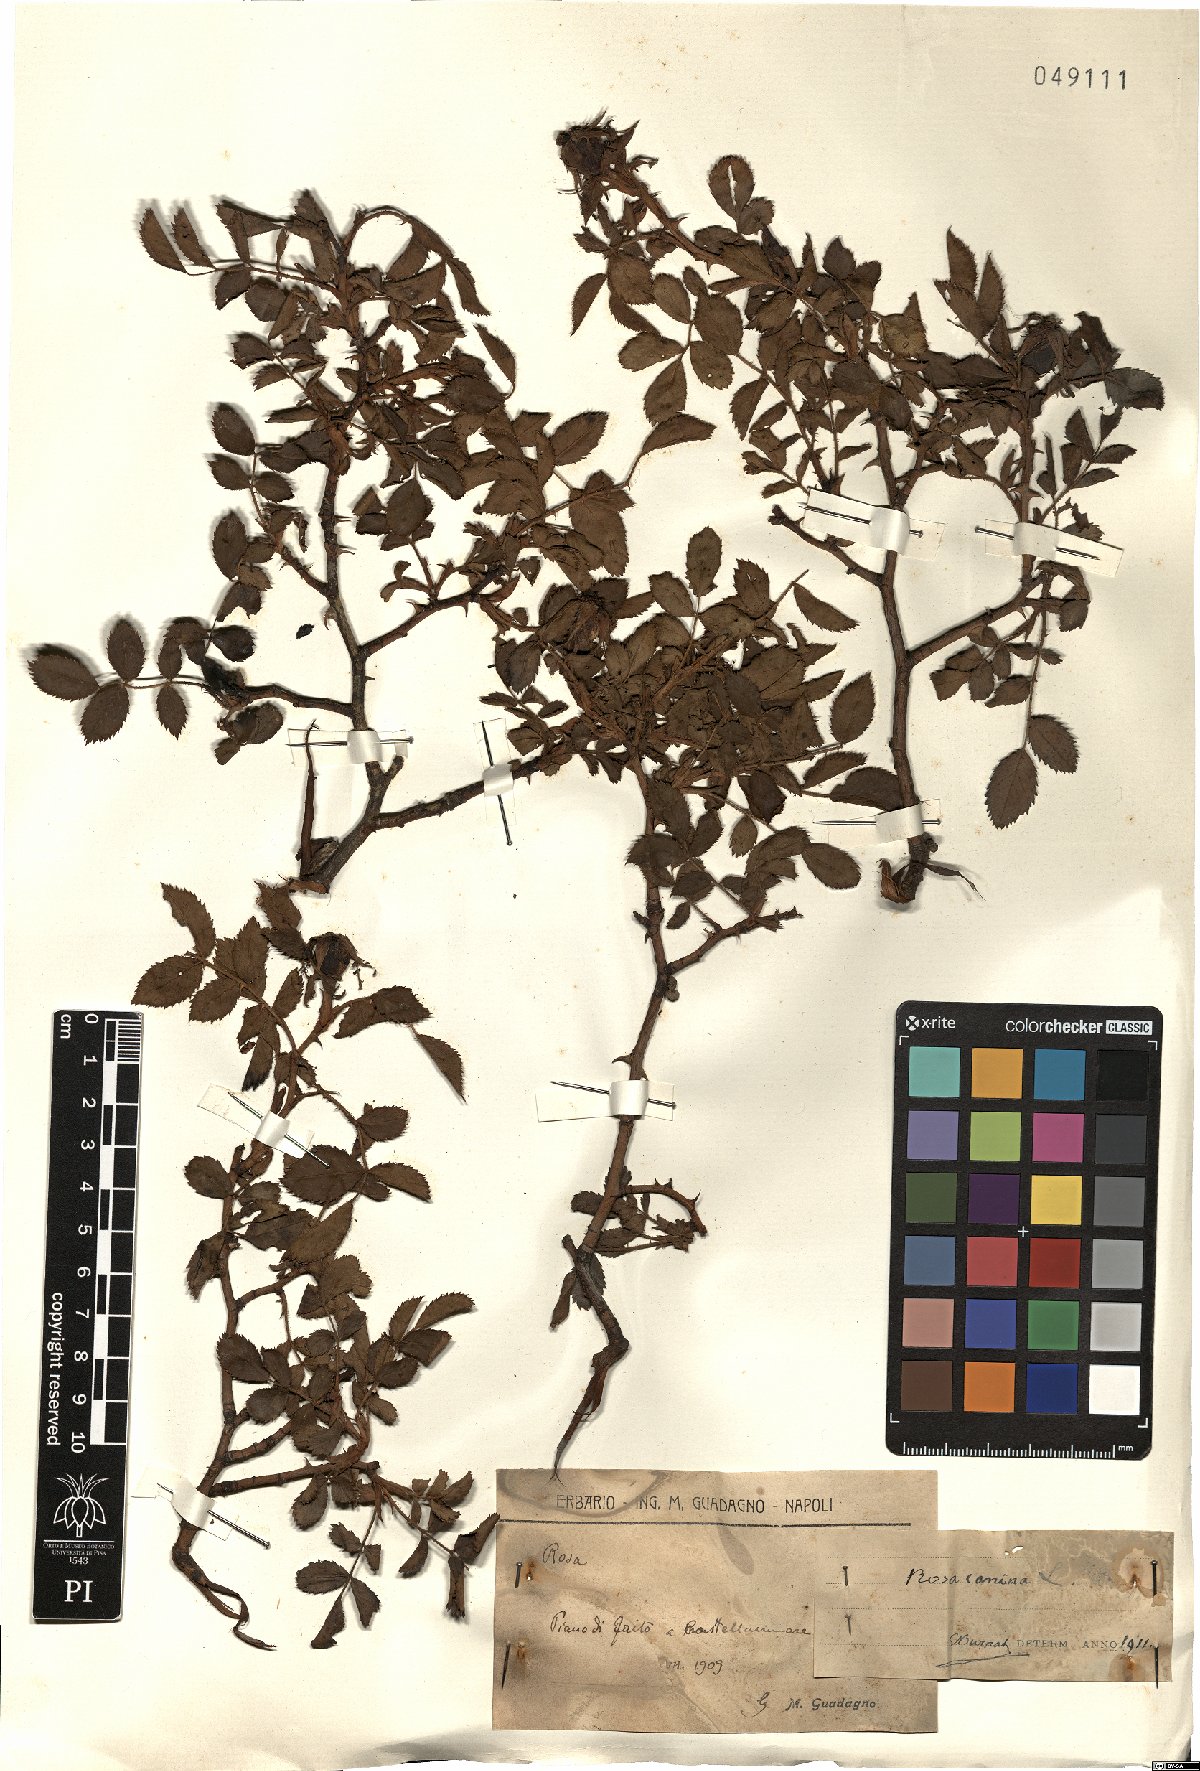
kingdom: Plantae
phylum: Tracheophyta
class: Magnoliopsida
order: Rosales
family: Rosaceae
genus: Rosa
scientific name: Rosa canina
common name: Dog rose
